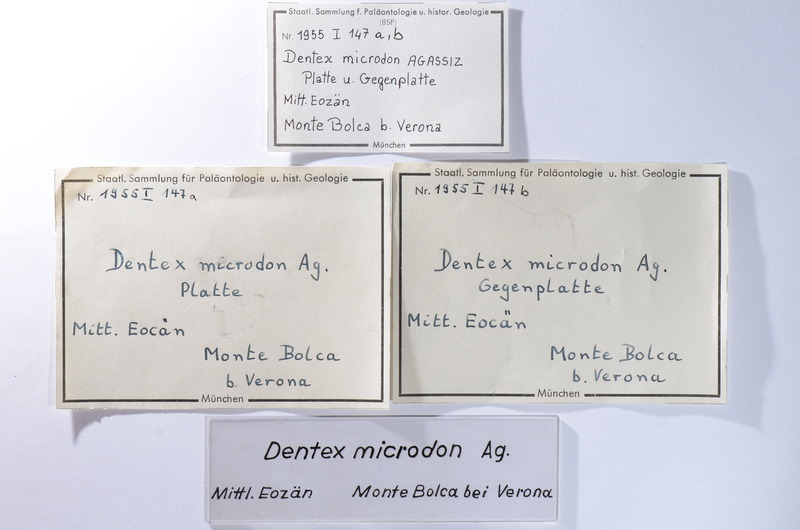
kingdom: Animalia
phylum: Chordata
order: Perciformes
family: Sparidae
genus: Dentex
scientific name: Dentex microdon
